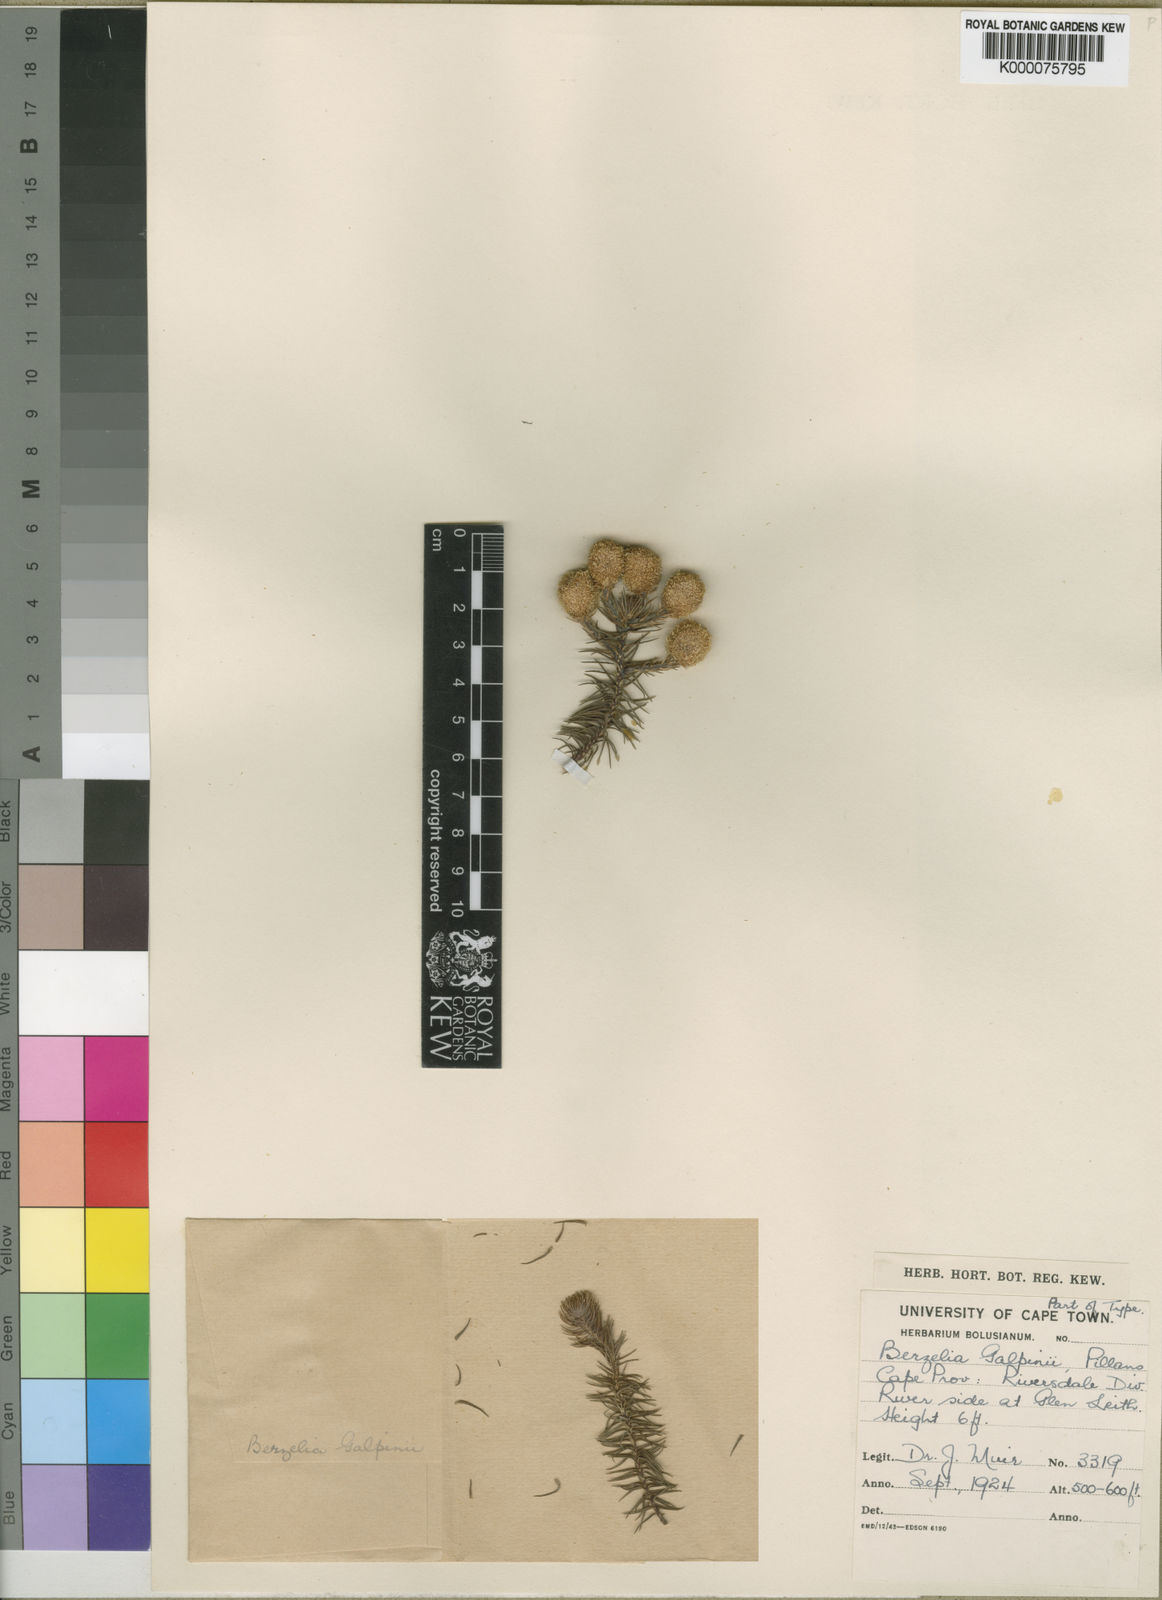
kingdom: Plantae
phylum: Tracheophyta
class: Magnoliopsida
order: Bruniales
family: Bruniaceae
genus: Berzelia
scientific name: Berzelia galpinii
